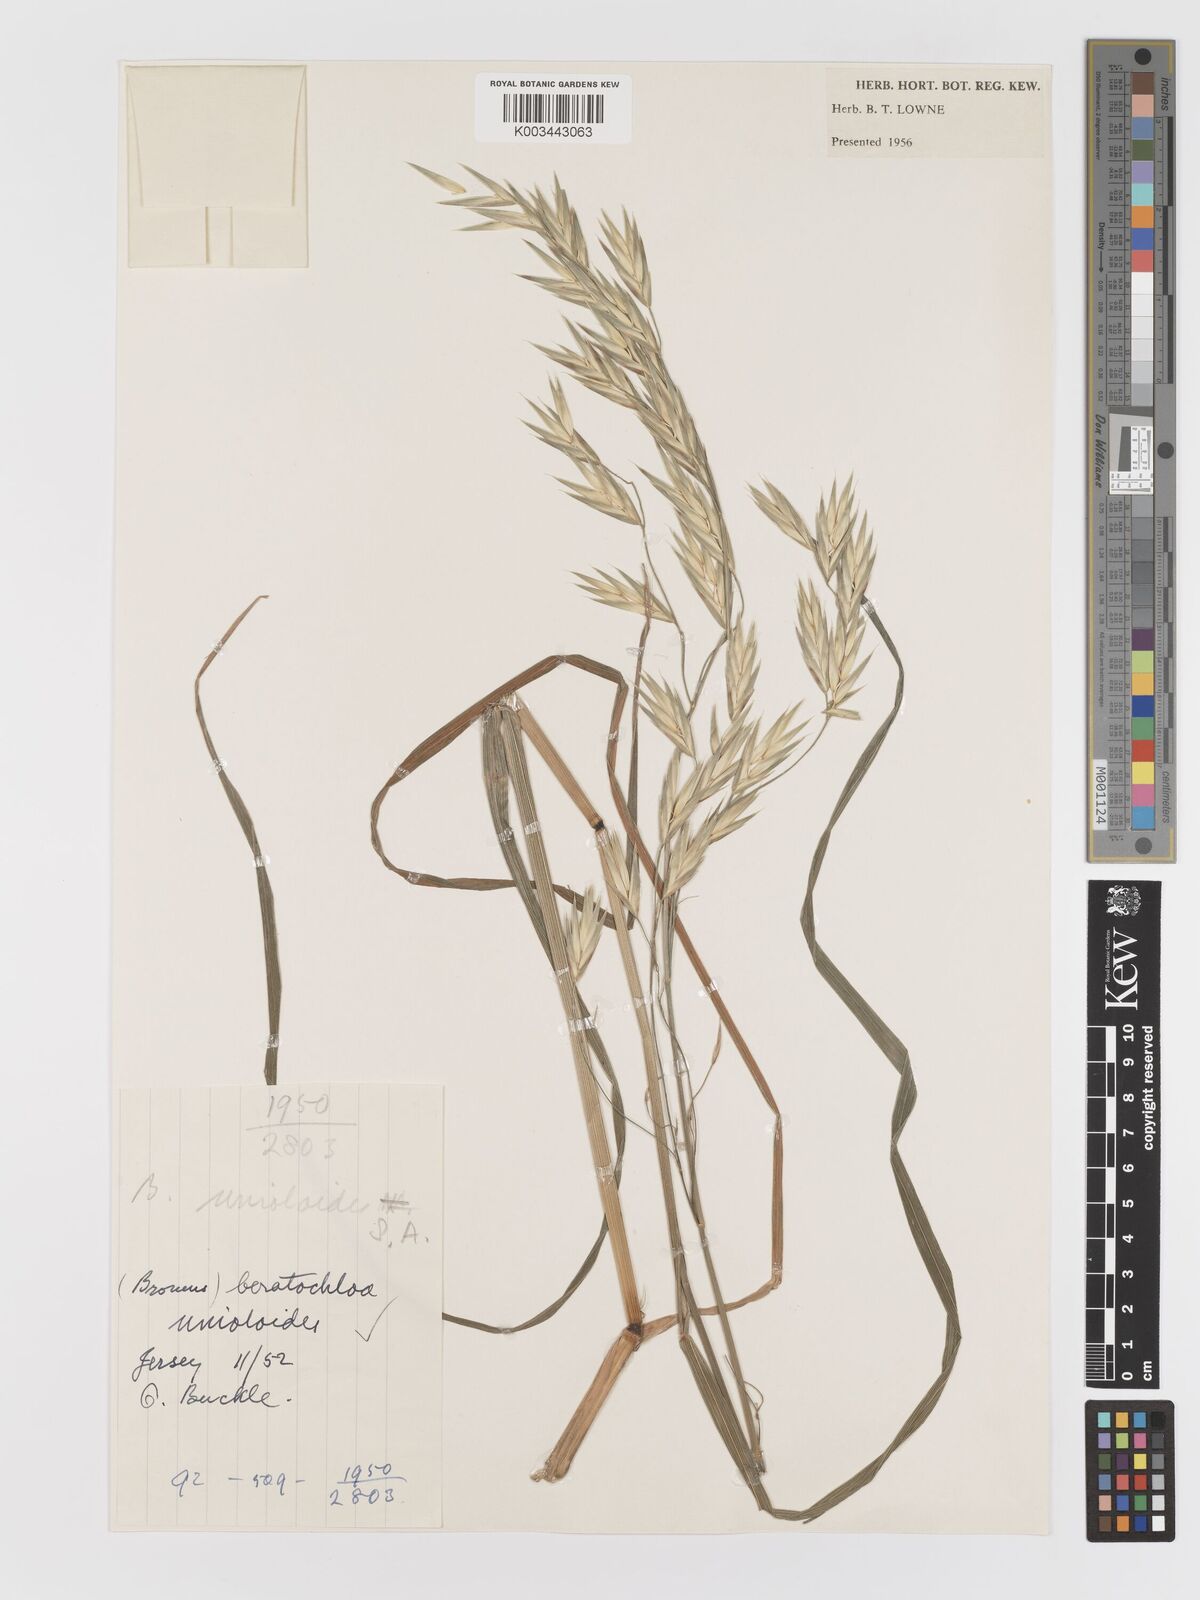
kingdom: Plantae
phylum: Tracheophyta
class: Liliopsida
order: Poales
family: Poaceae
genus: Bromus
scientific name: Bromus catharticus
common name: Rescuegrass
